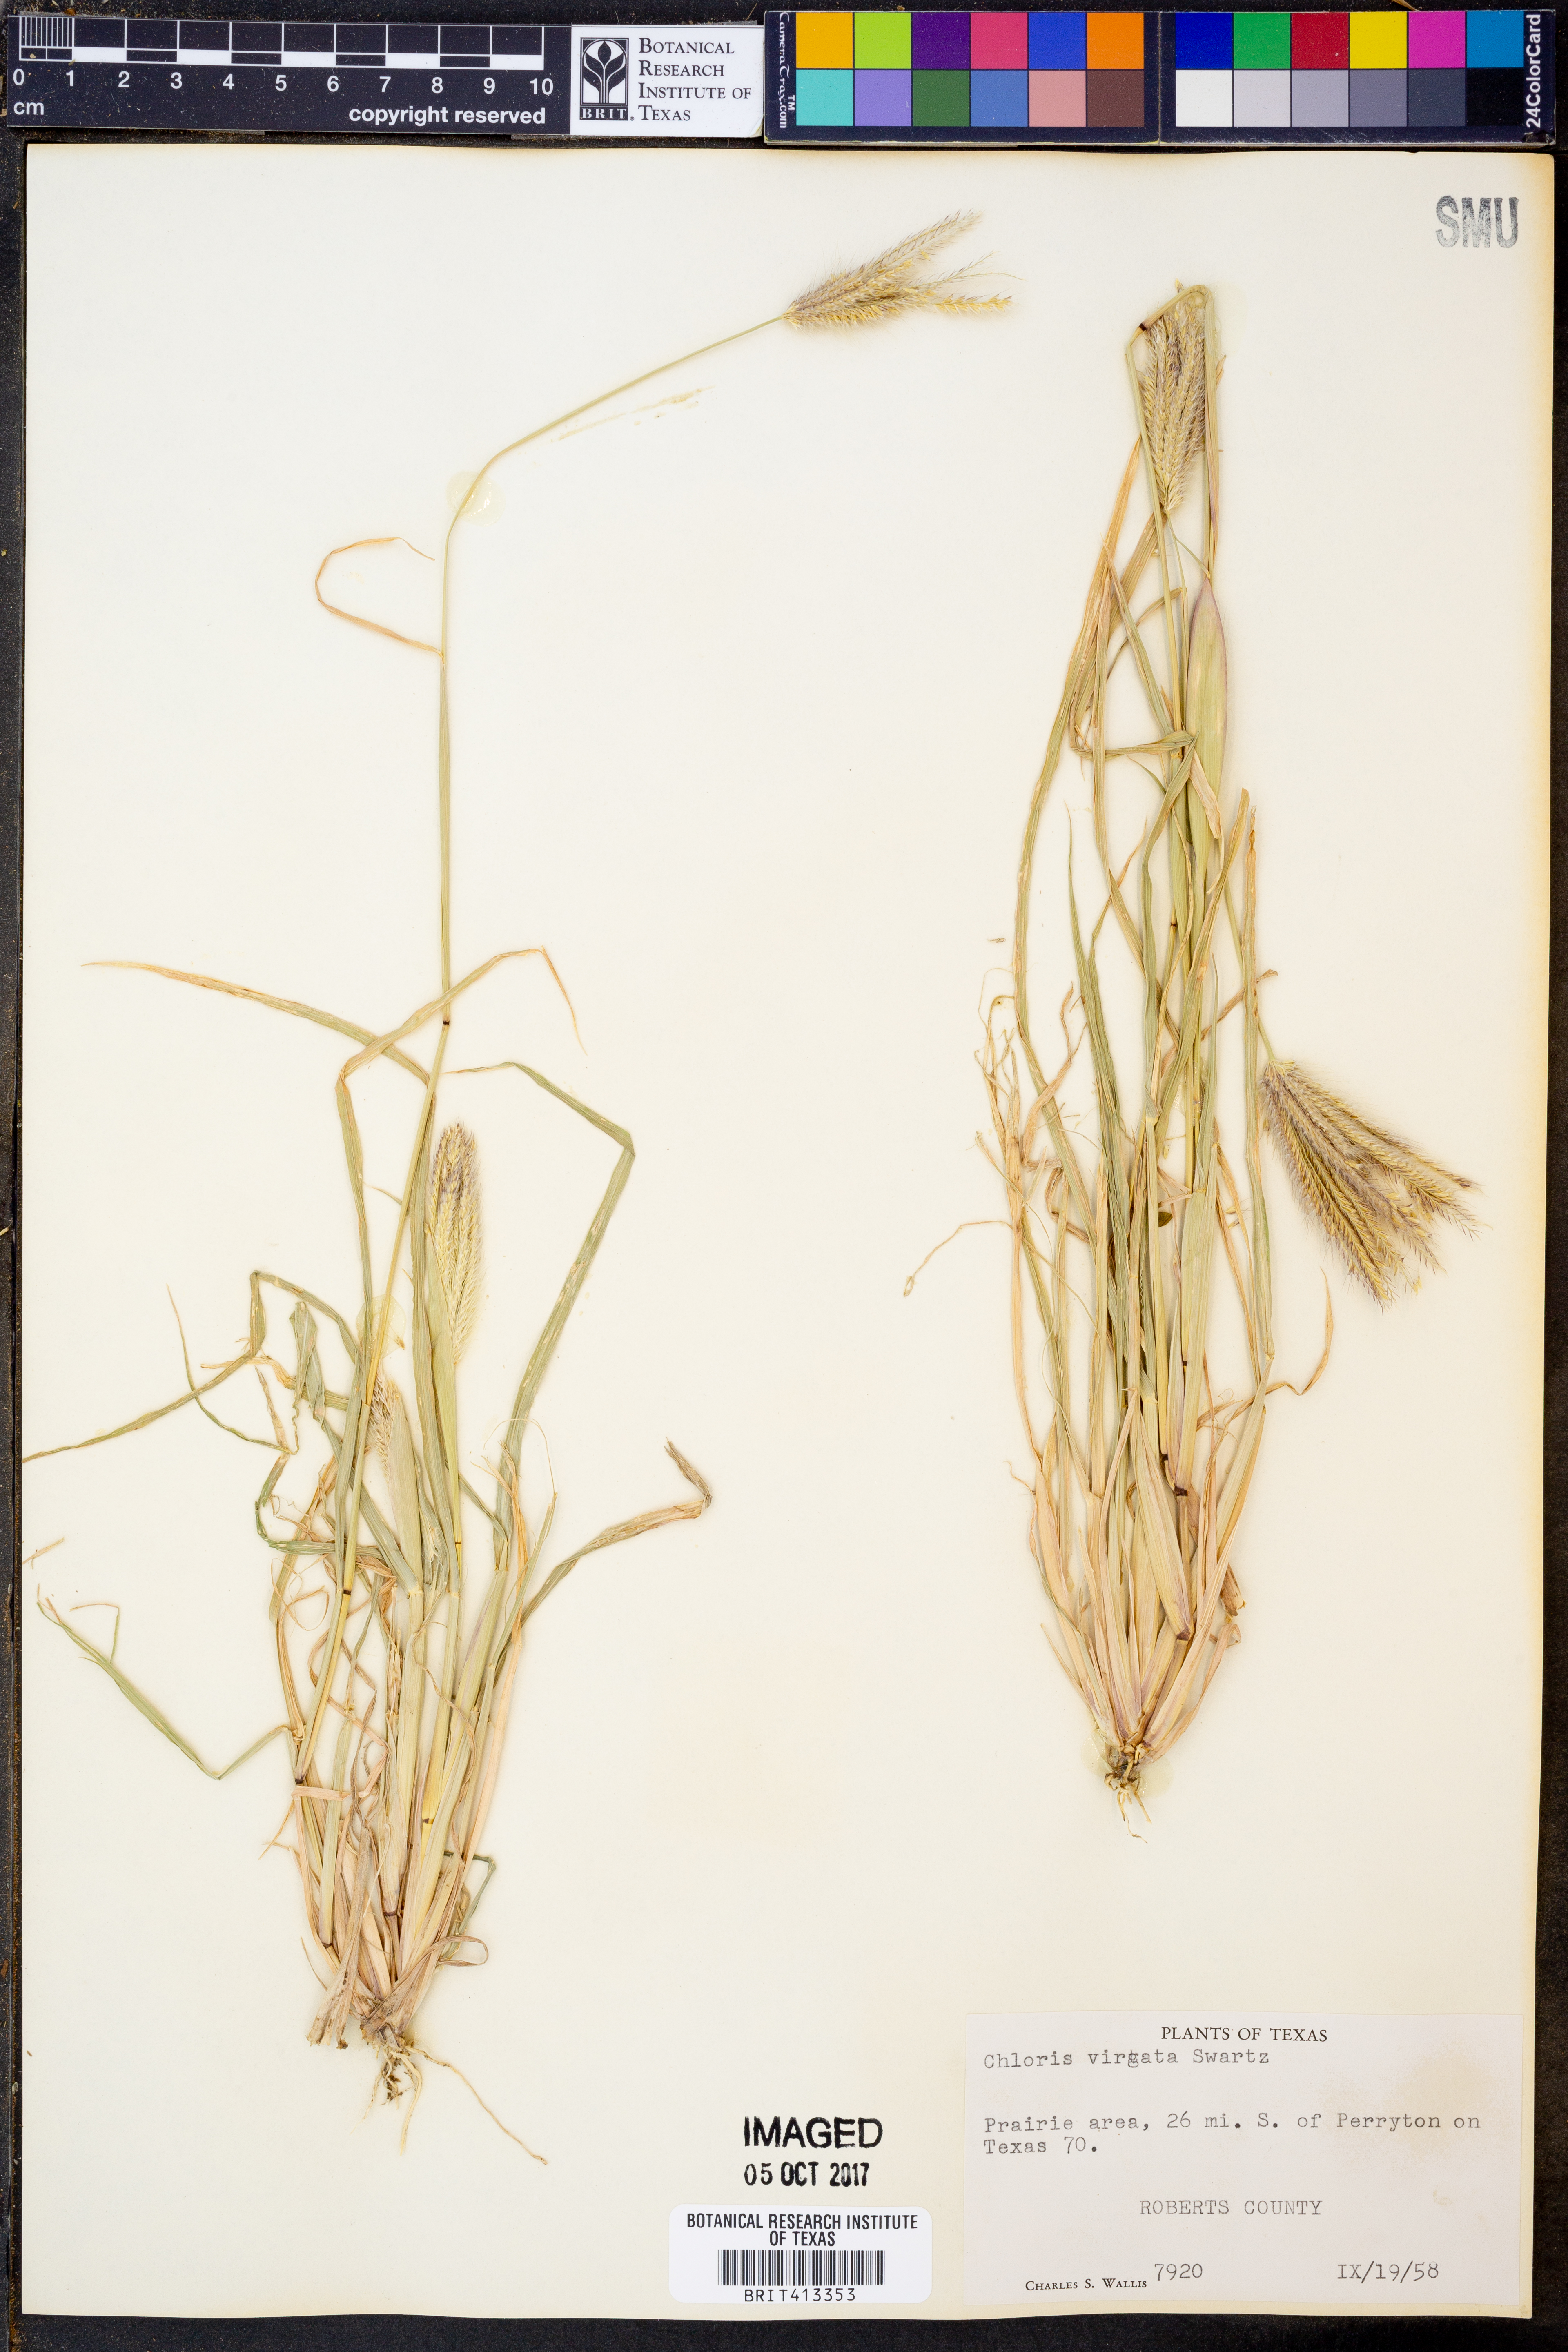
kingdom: Plantae
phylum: Tracheophyta
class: Liliopsida
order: Poales
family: Poaceae
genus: Chloris
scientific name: Chloris virgata
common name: Feathery rhodes-grass
